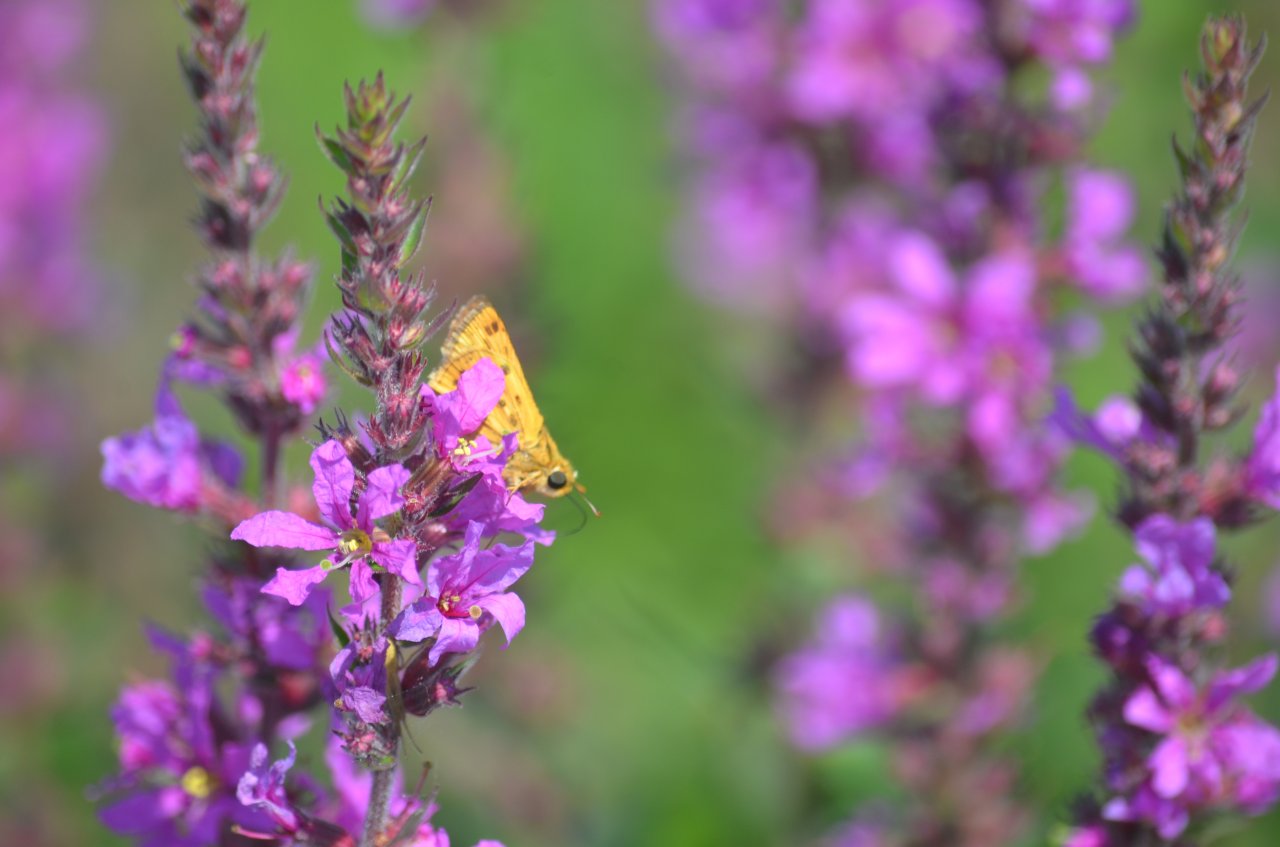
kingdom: Animalia
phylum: Arthropoda
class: Insecta
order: Lepidoptera
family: Hesperiidae
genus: Hylephila
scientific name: Hylephila phyleus
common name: Fiery Skipper
